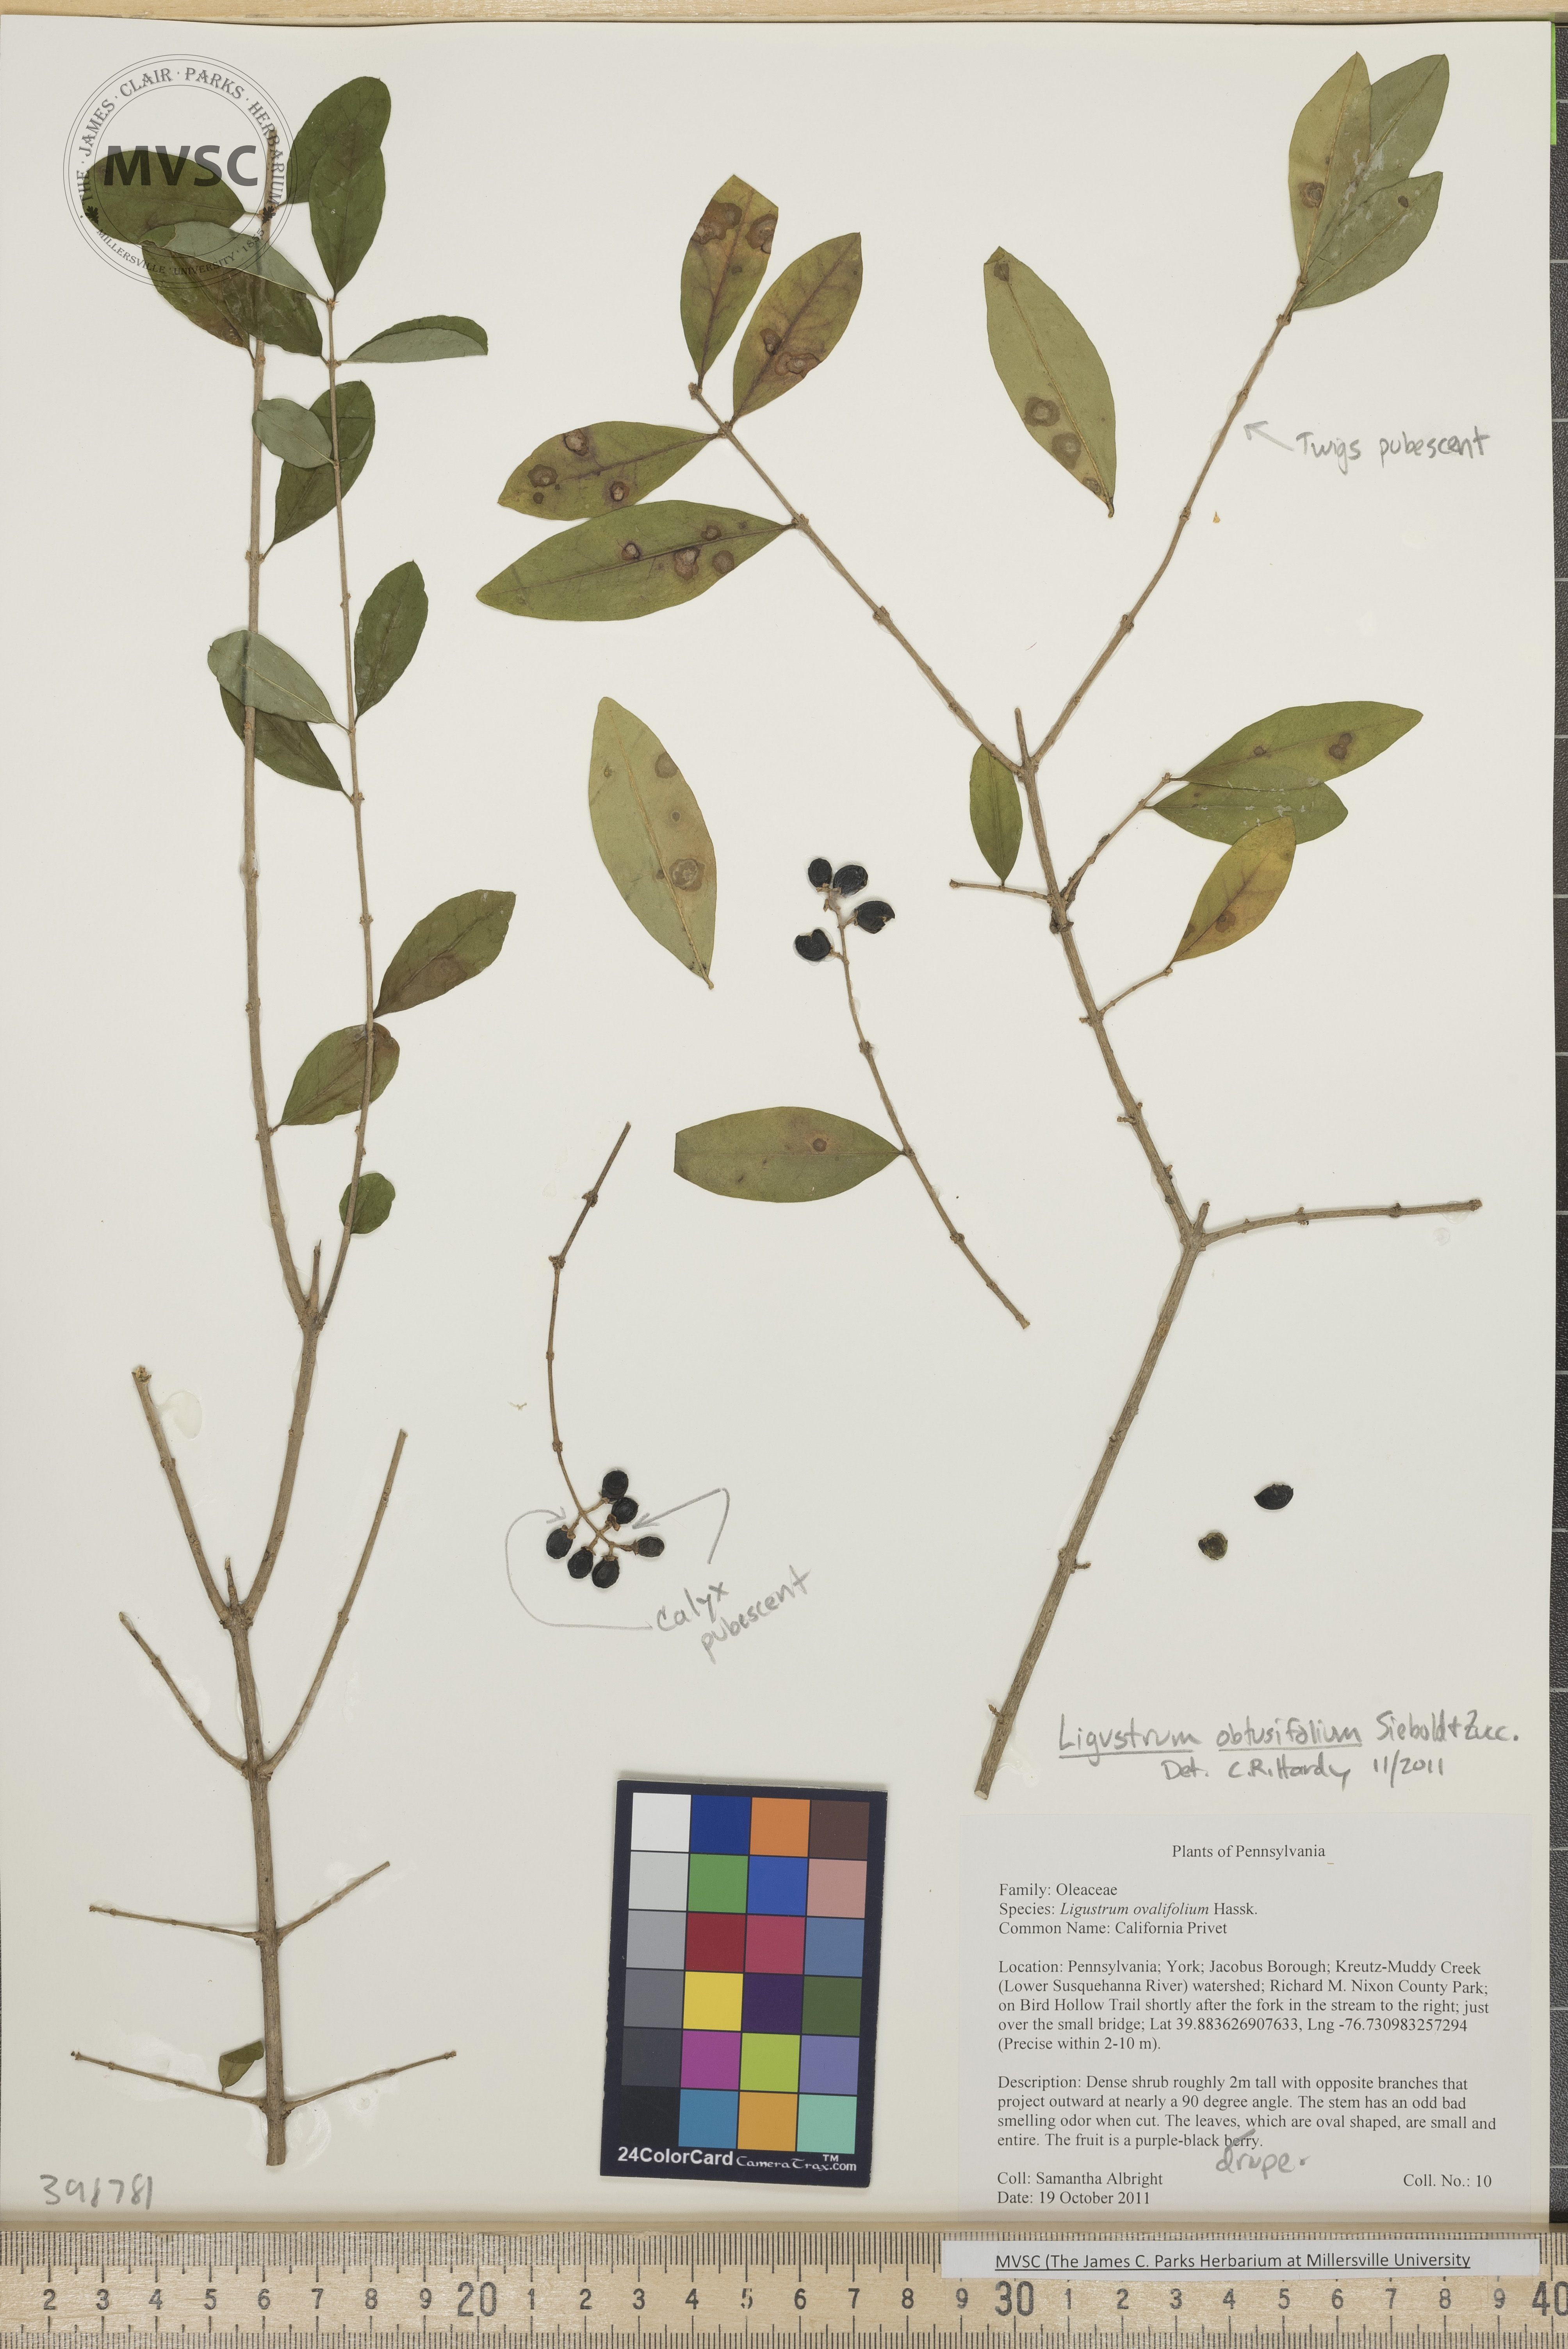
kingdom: Plantae
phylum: Tracheophyta
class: Magnoliopsida
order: Lamiales
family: Oleaceae
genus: Ligustrum
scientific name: Ligustrum obtusifolium
